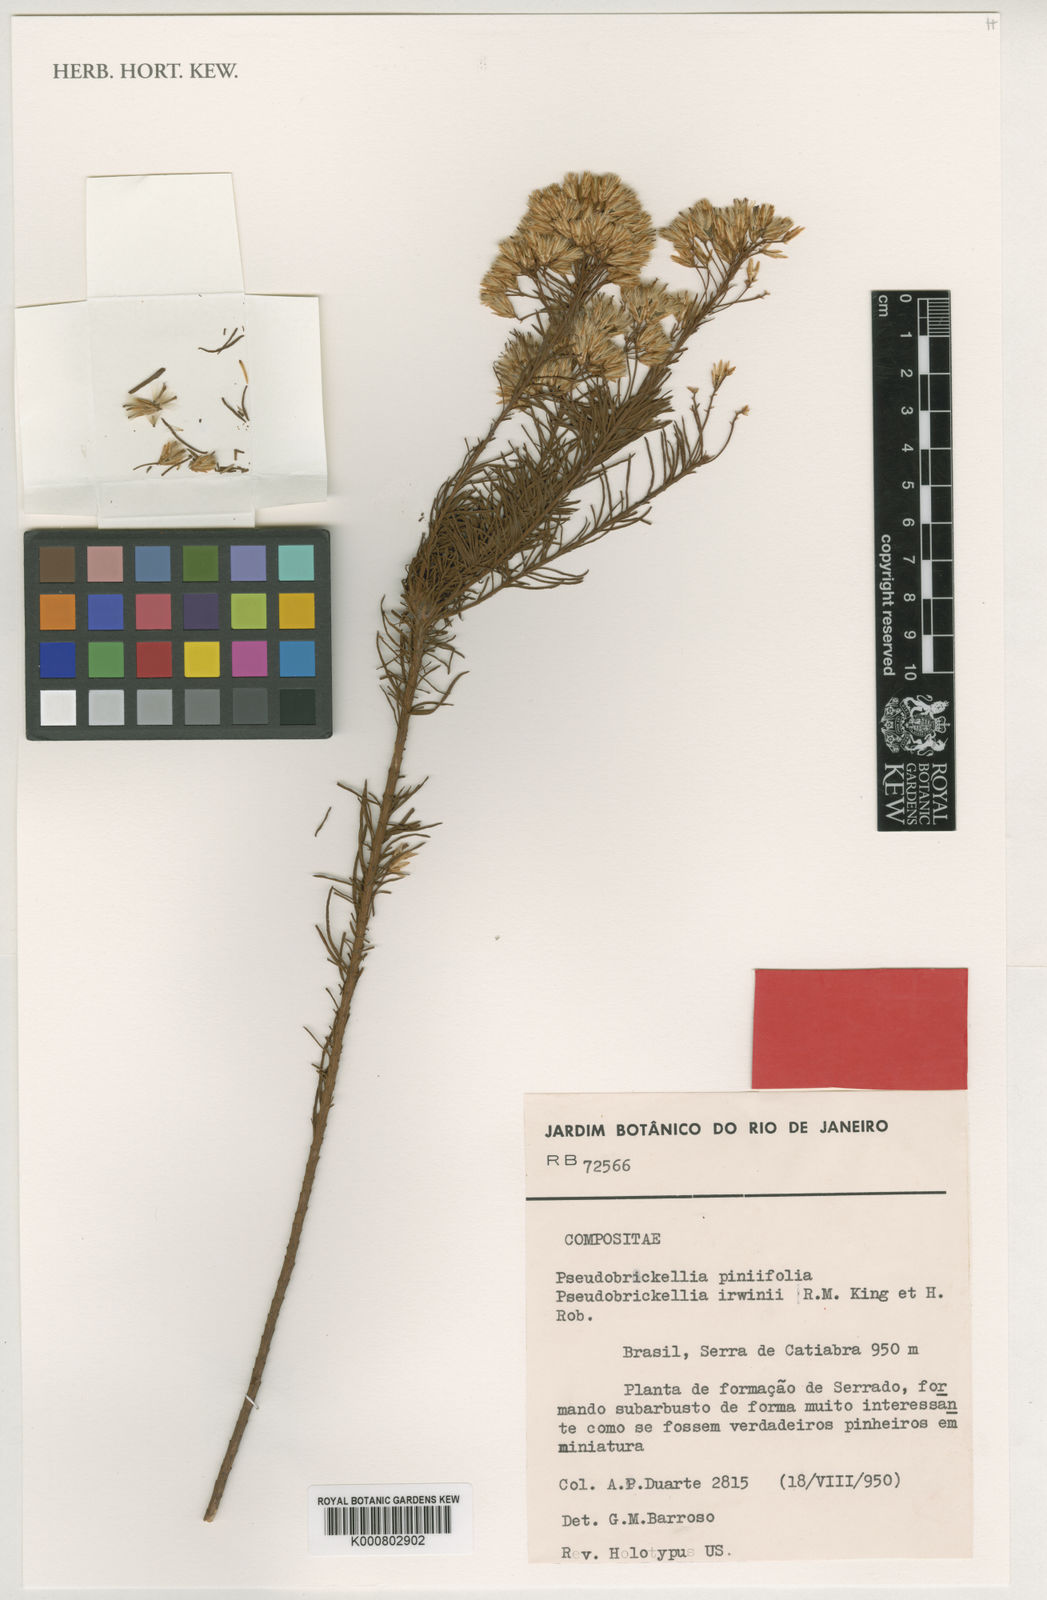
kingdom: Plantae
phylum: Tracheophyta
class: Magnoliopsida
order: Asterales
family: Asteraceae
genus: Pseudobrickellia
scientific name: Pseudobrickellia irwinii
